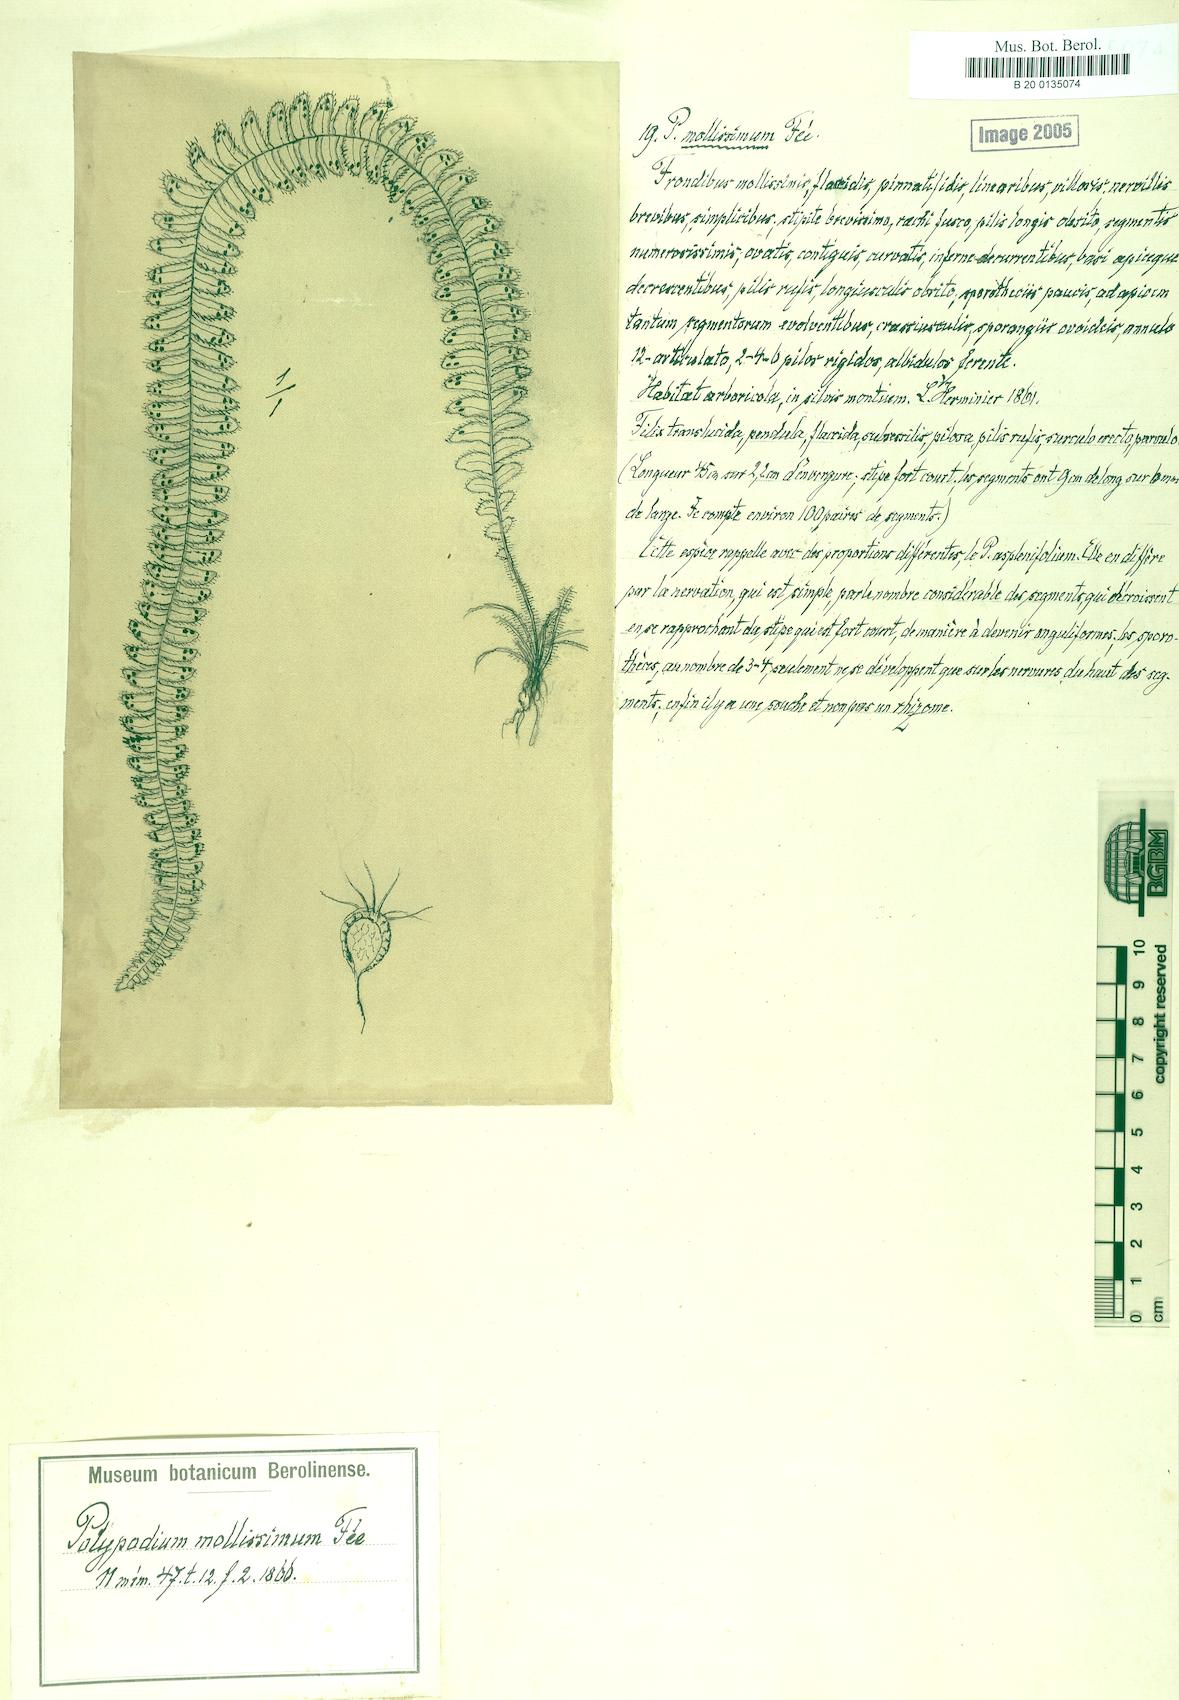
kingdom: Plantae
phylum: Tracheophyta
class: Polypodiopsida
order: Polypodiales
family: Polypodiaceae
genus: Alansmia
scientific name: Alansmia elastica
